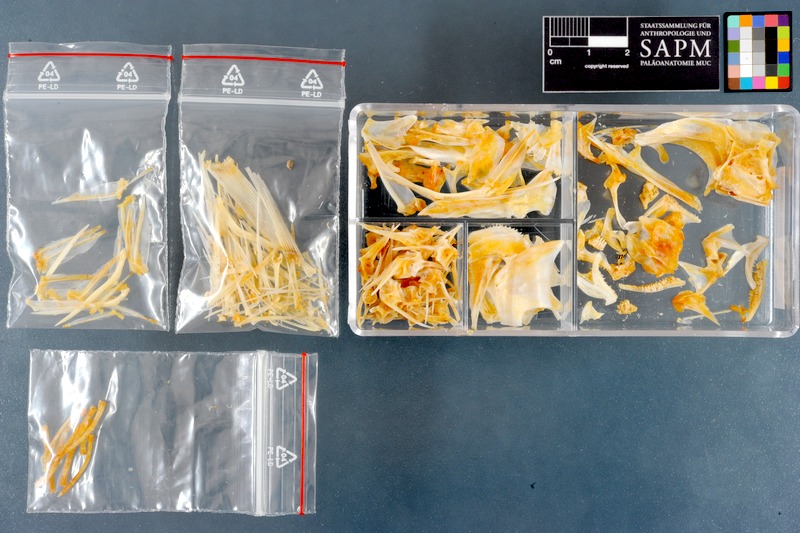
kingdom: Animalia
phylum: Chordata
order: Perciformes
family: Haemulidae
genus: Diagramma
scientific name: Diagramma pictum
